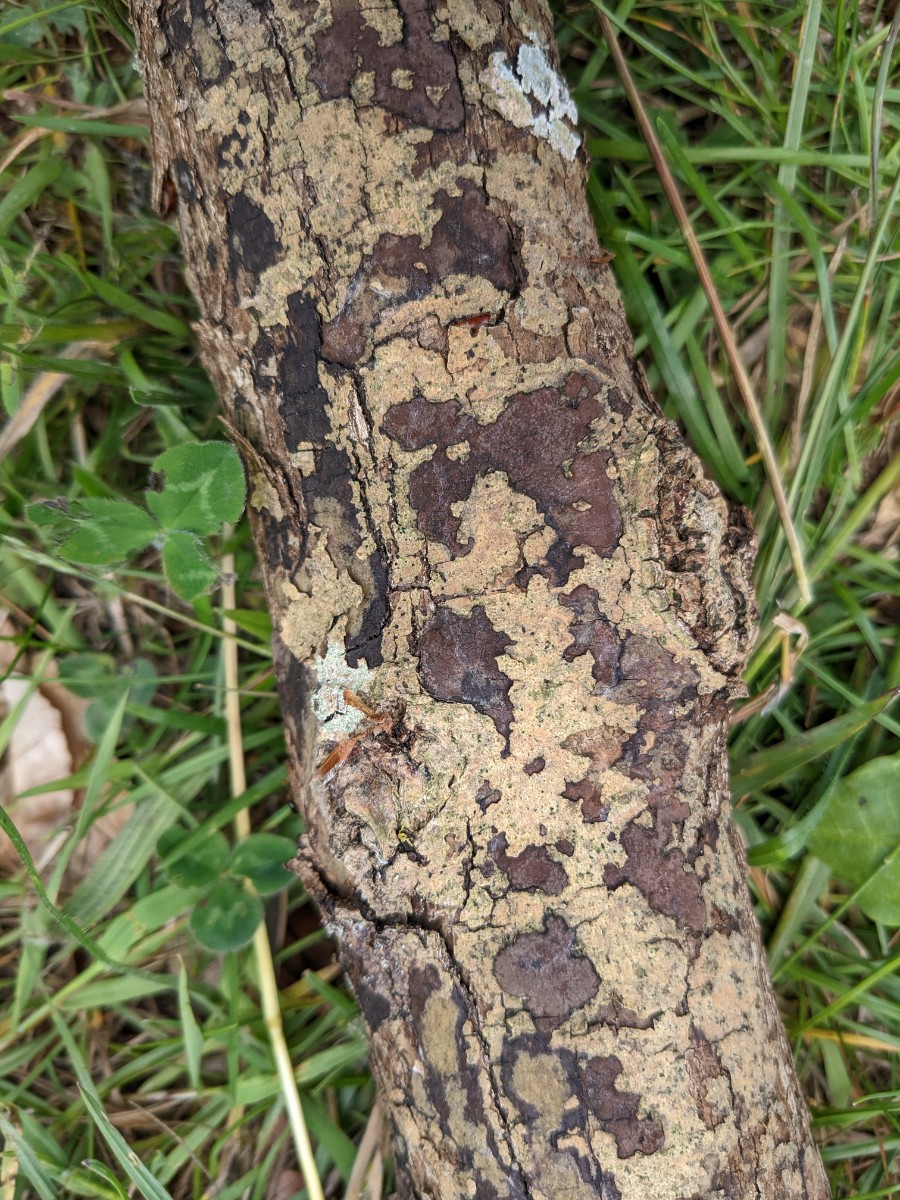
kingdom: Fungi
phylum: Ascomycota
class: Sordariomycetes
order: Xylariales
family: Hypoxylaceae
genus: Hypoxylon
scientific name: Hypoxylon petriniae
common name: nedsænket kulbær
